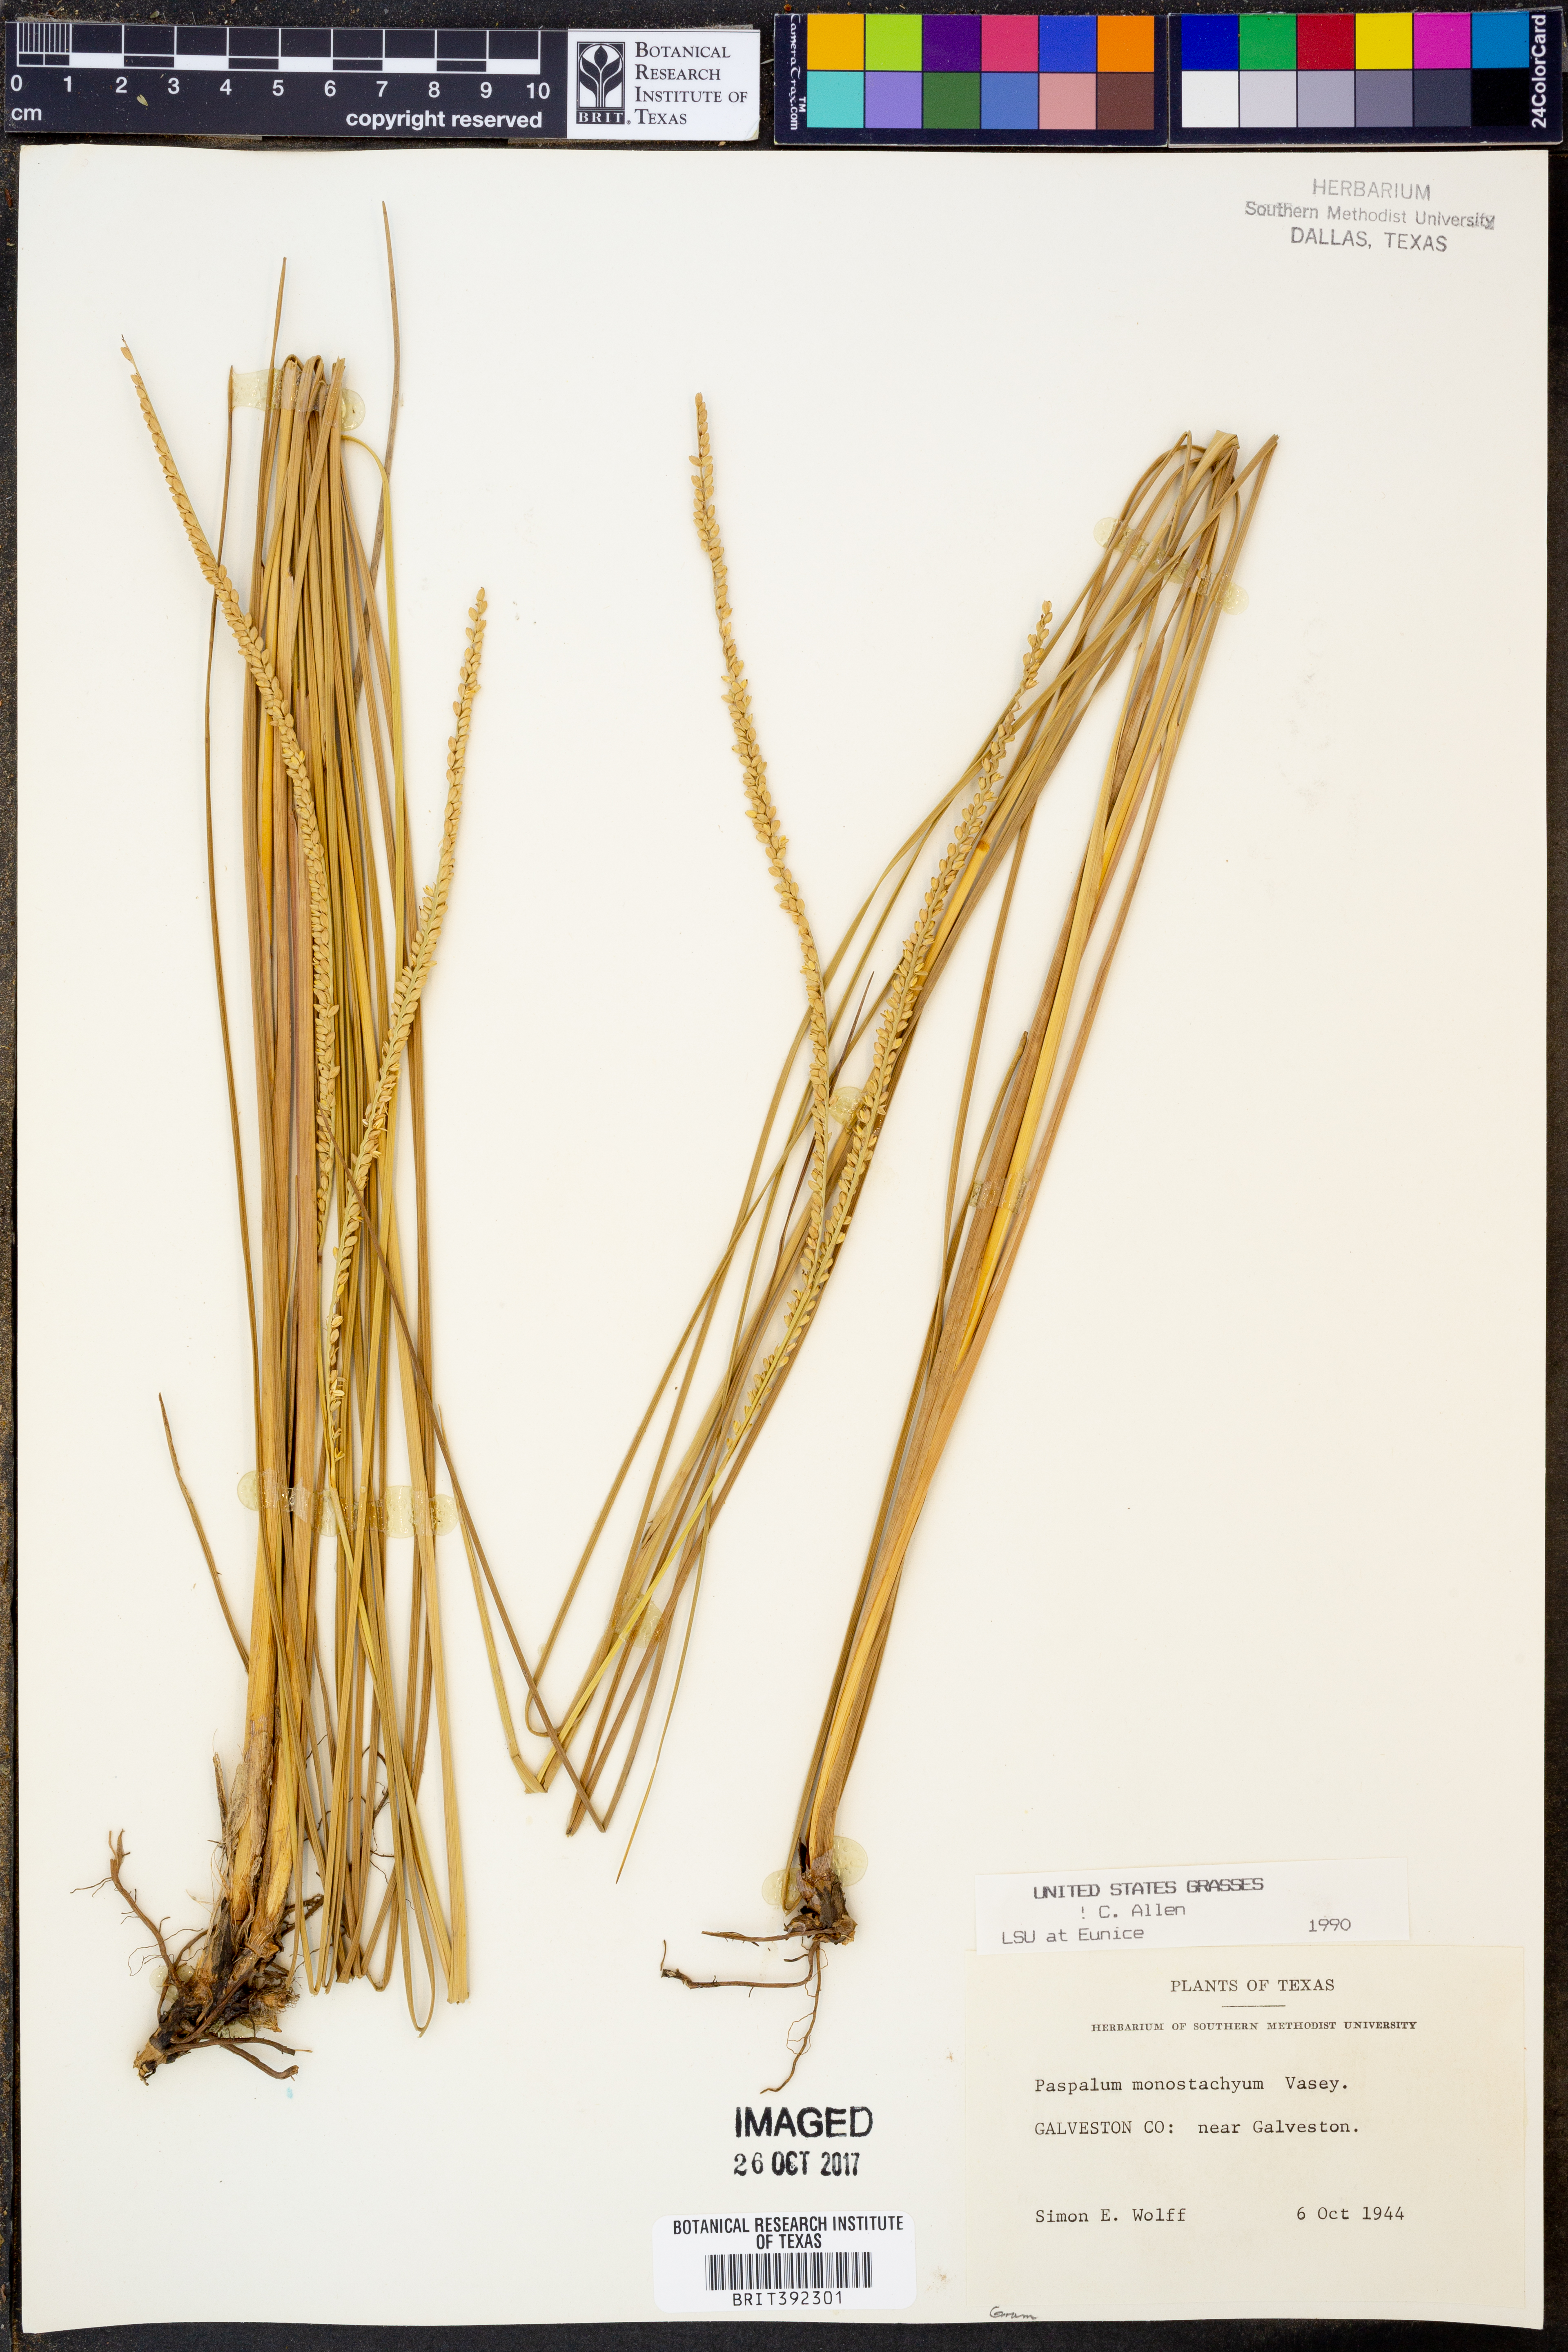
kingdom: Plantae
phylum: Tracheophyta
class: Liliopsida
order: Poales
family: Poaceae
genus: Paspalum
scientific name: Paspalum monostachyum
